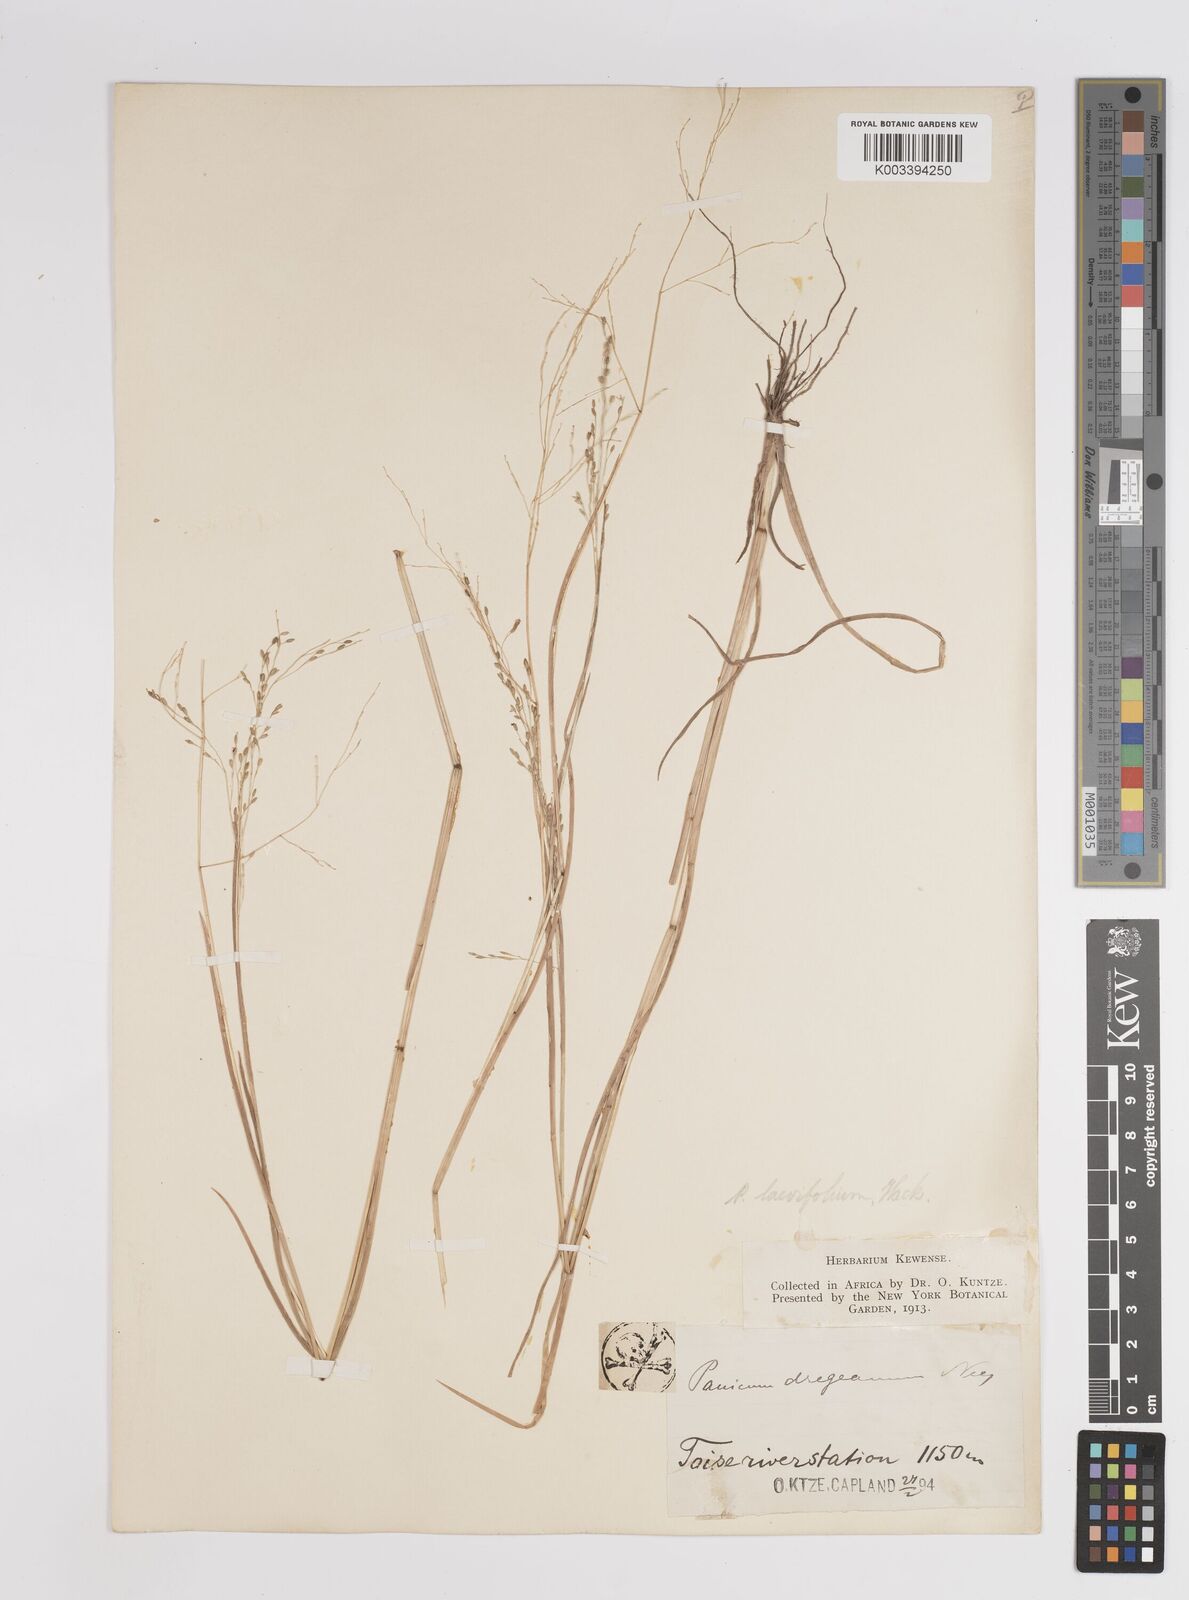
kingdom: Plantae
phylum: Tracheophyta
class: Liliopsida
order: Poales
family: Poaceae
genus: Panicum
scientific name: Panicum schinzii
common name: Sweet grass
